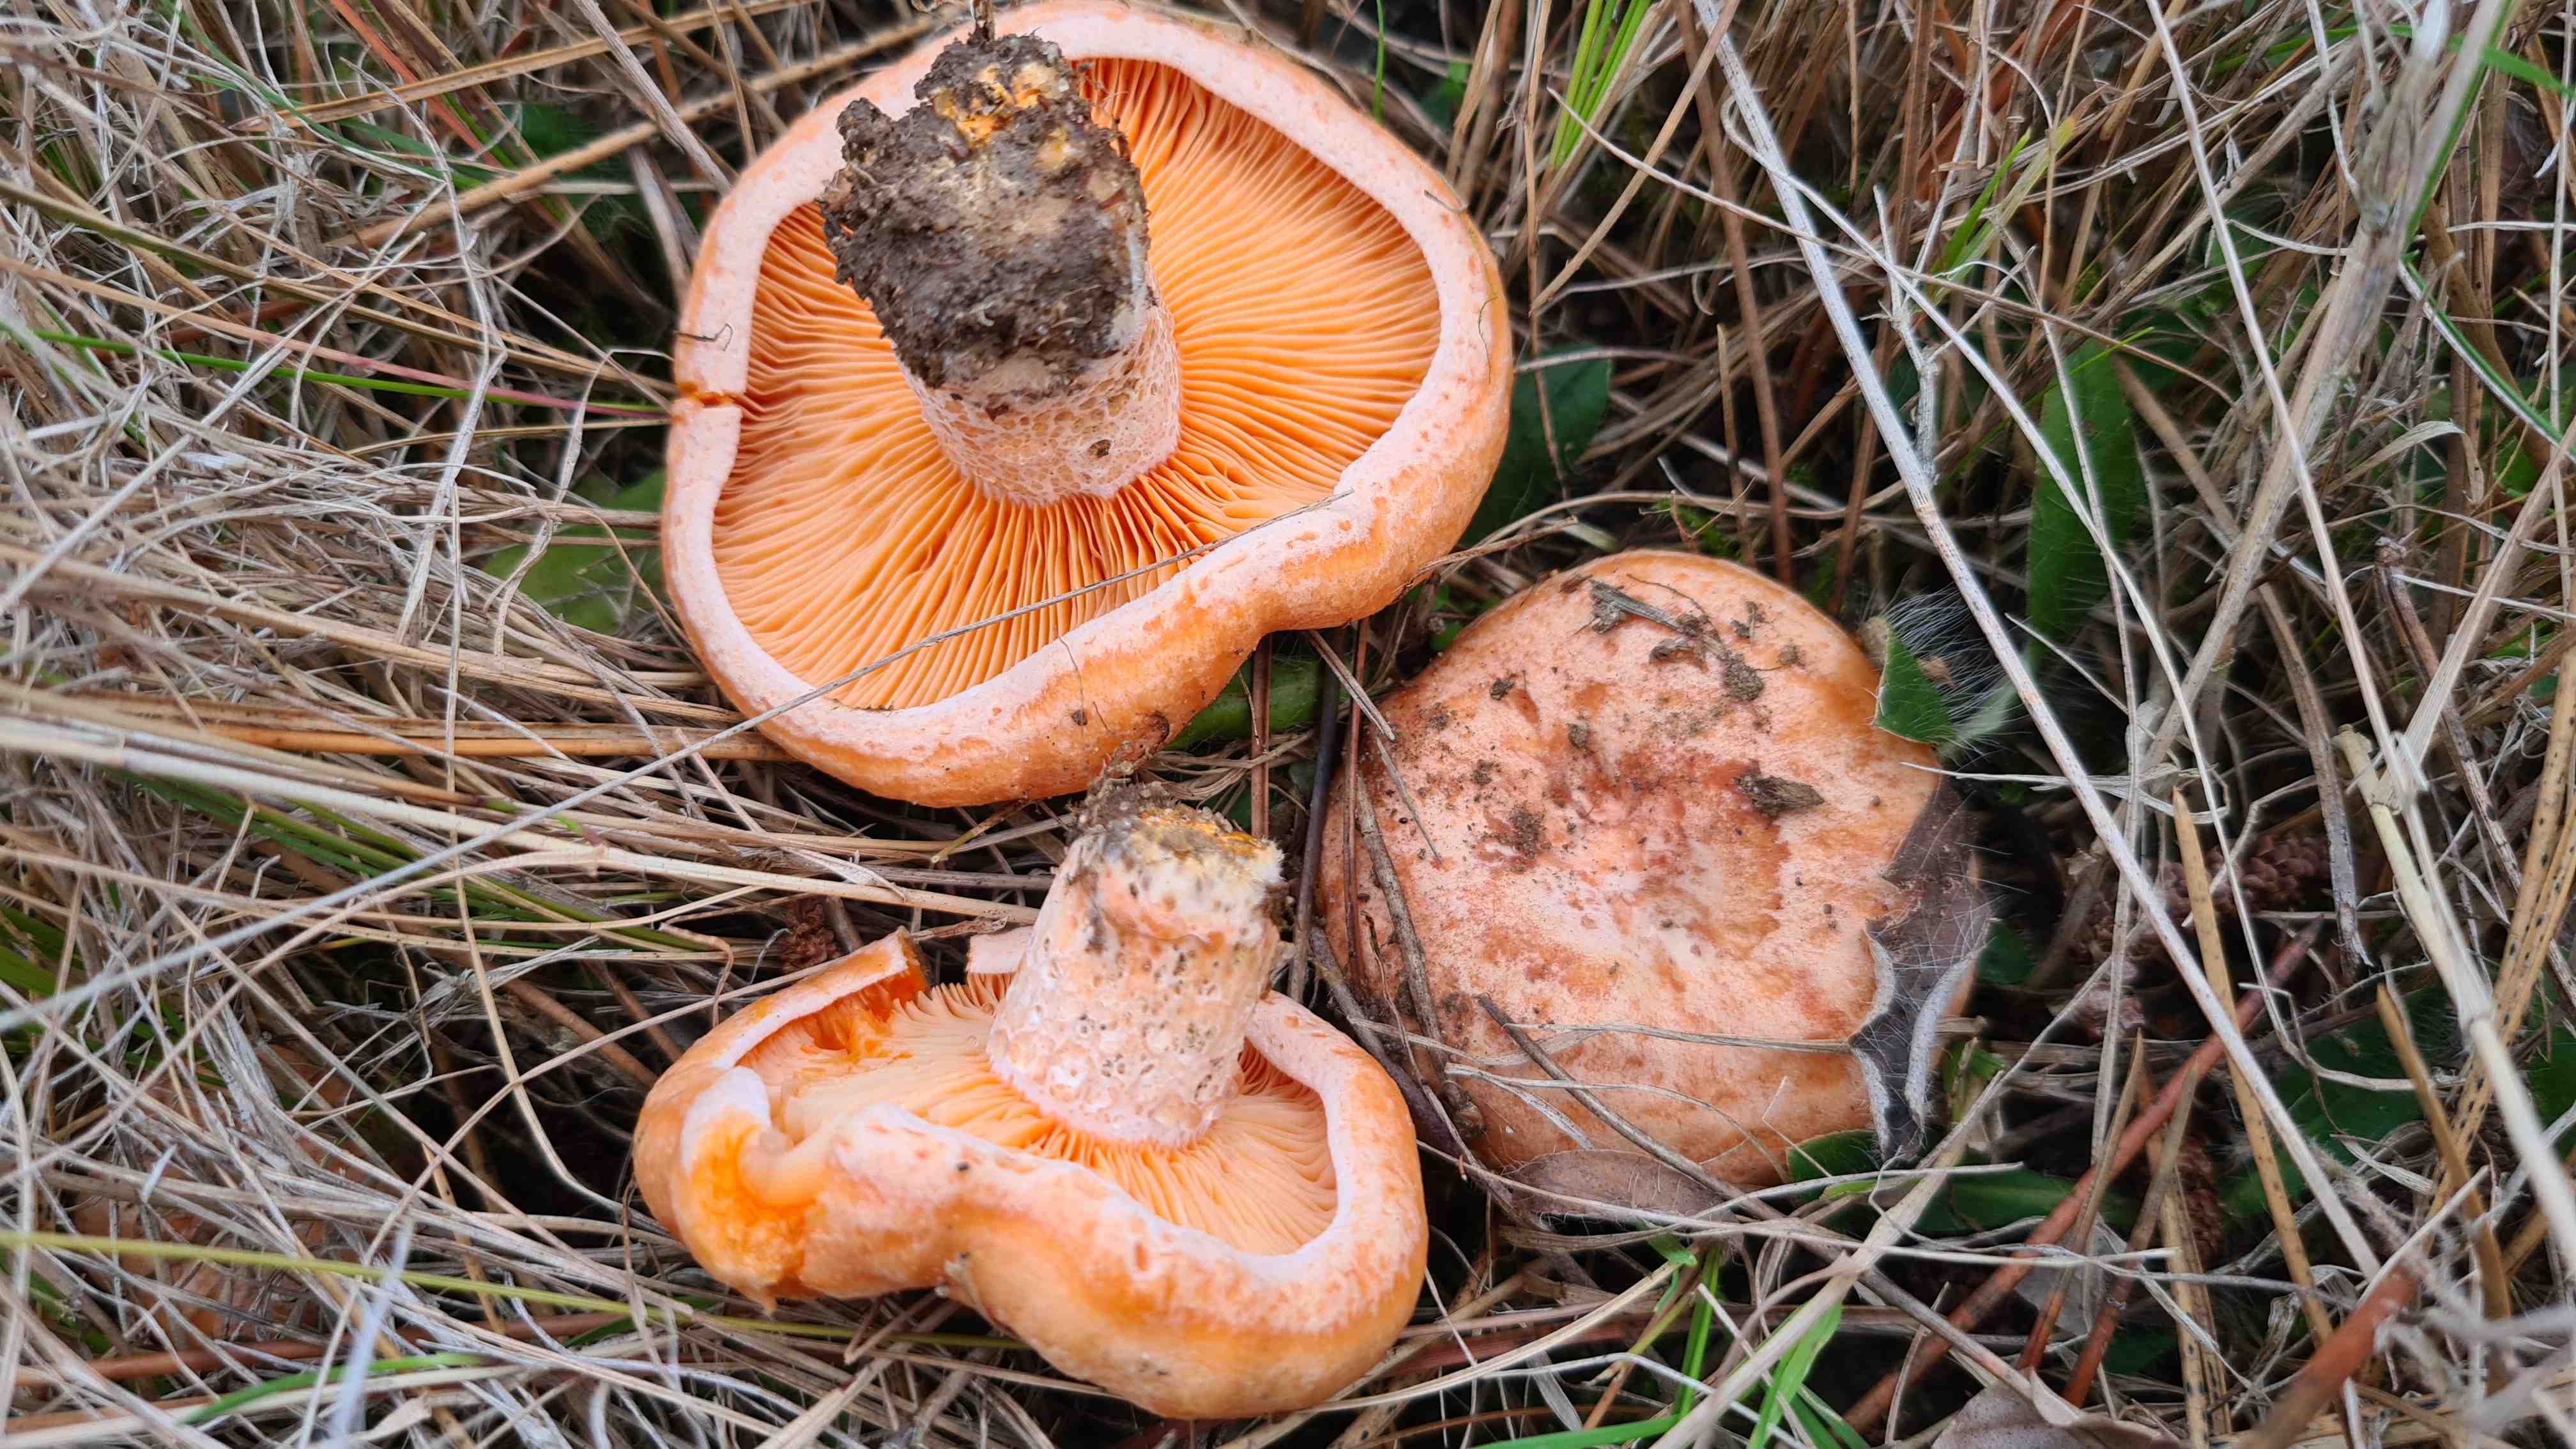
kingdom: Fungi
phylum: Basidiomycota
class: Agaricomycetes
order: Russulales
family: Russulaceae
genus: Lactarius
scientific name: Lactarius deliciosus
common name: velsmagende mælkehat
